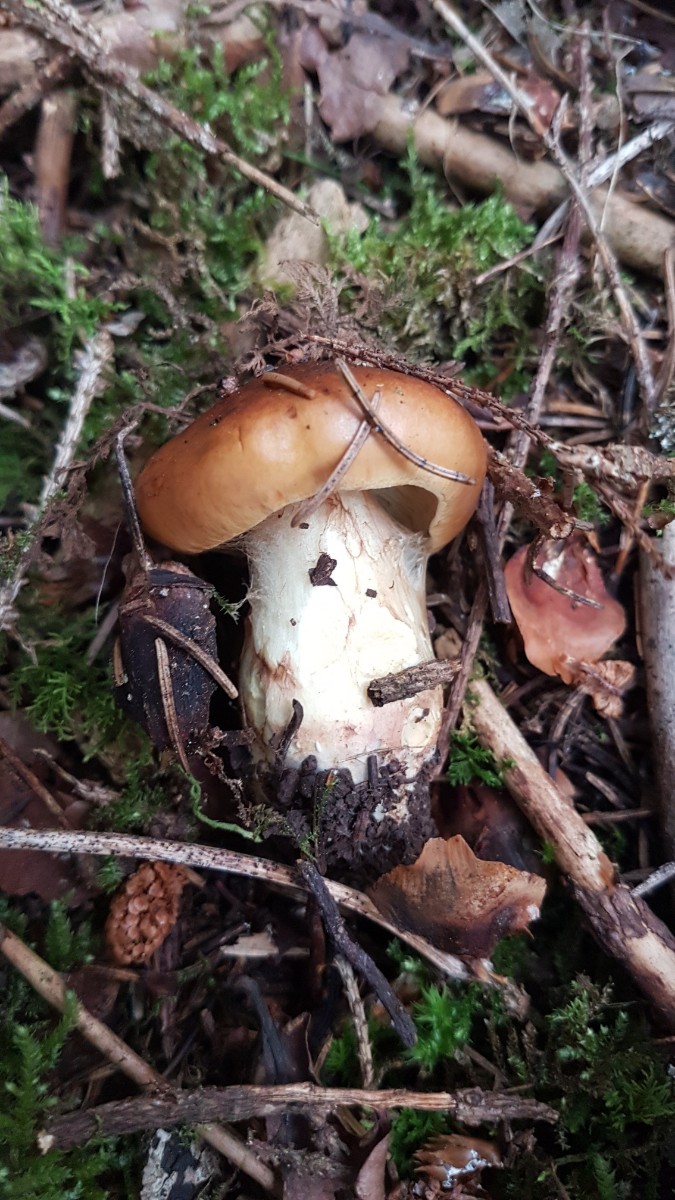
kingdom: Fungi
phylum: Basidiomycota
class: Agaricomycetes
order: Agaricales
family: Cortinariaceae
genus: Cortinarius
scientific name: Cortinarius nanceiensis
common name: banan-slørhat
